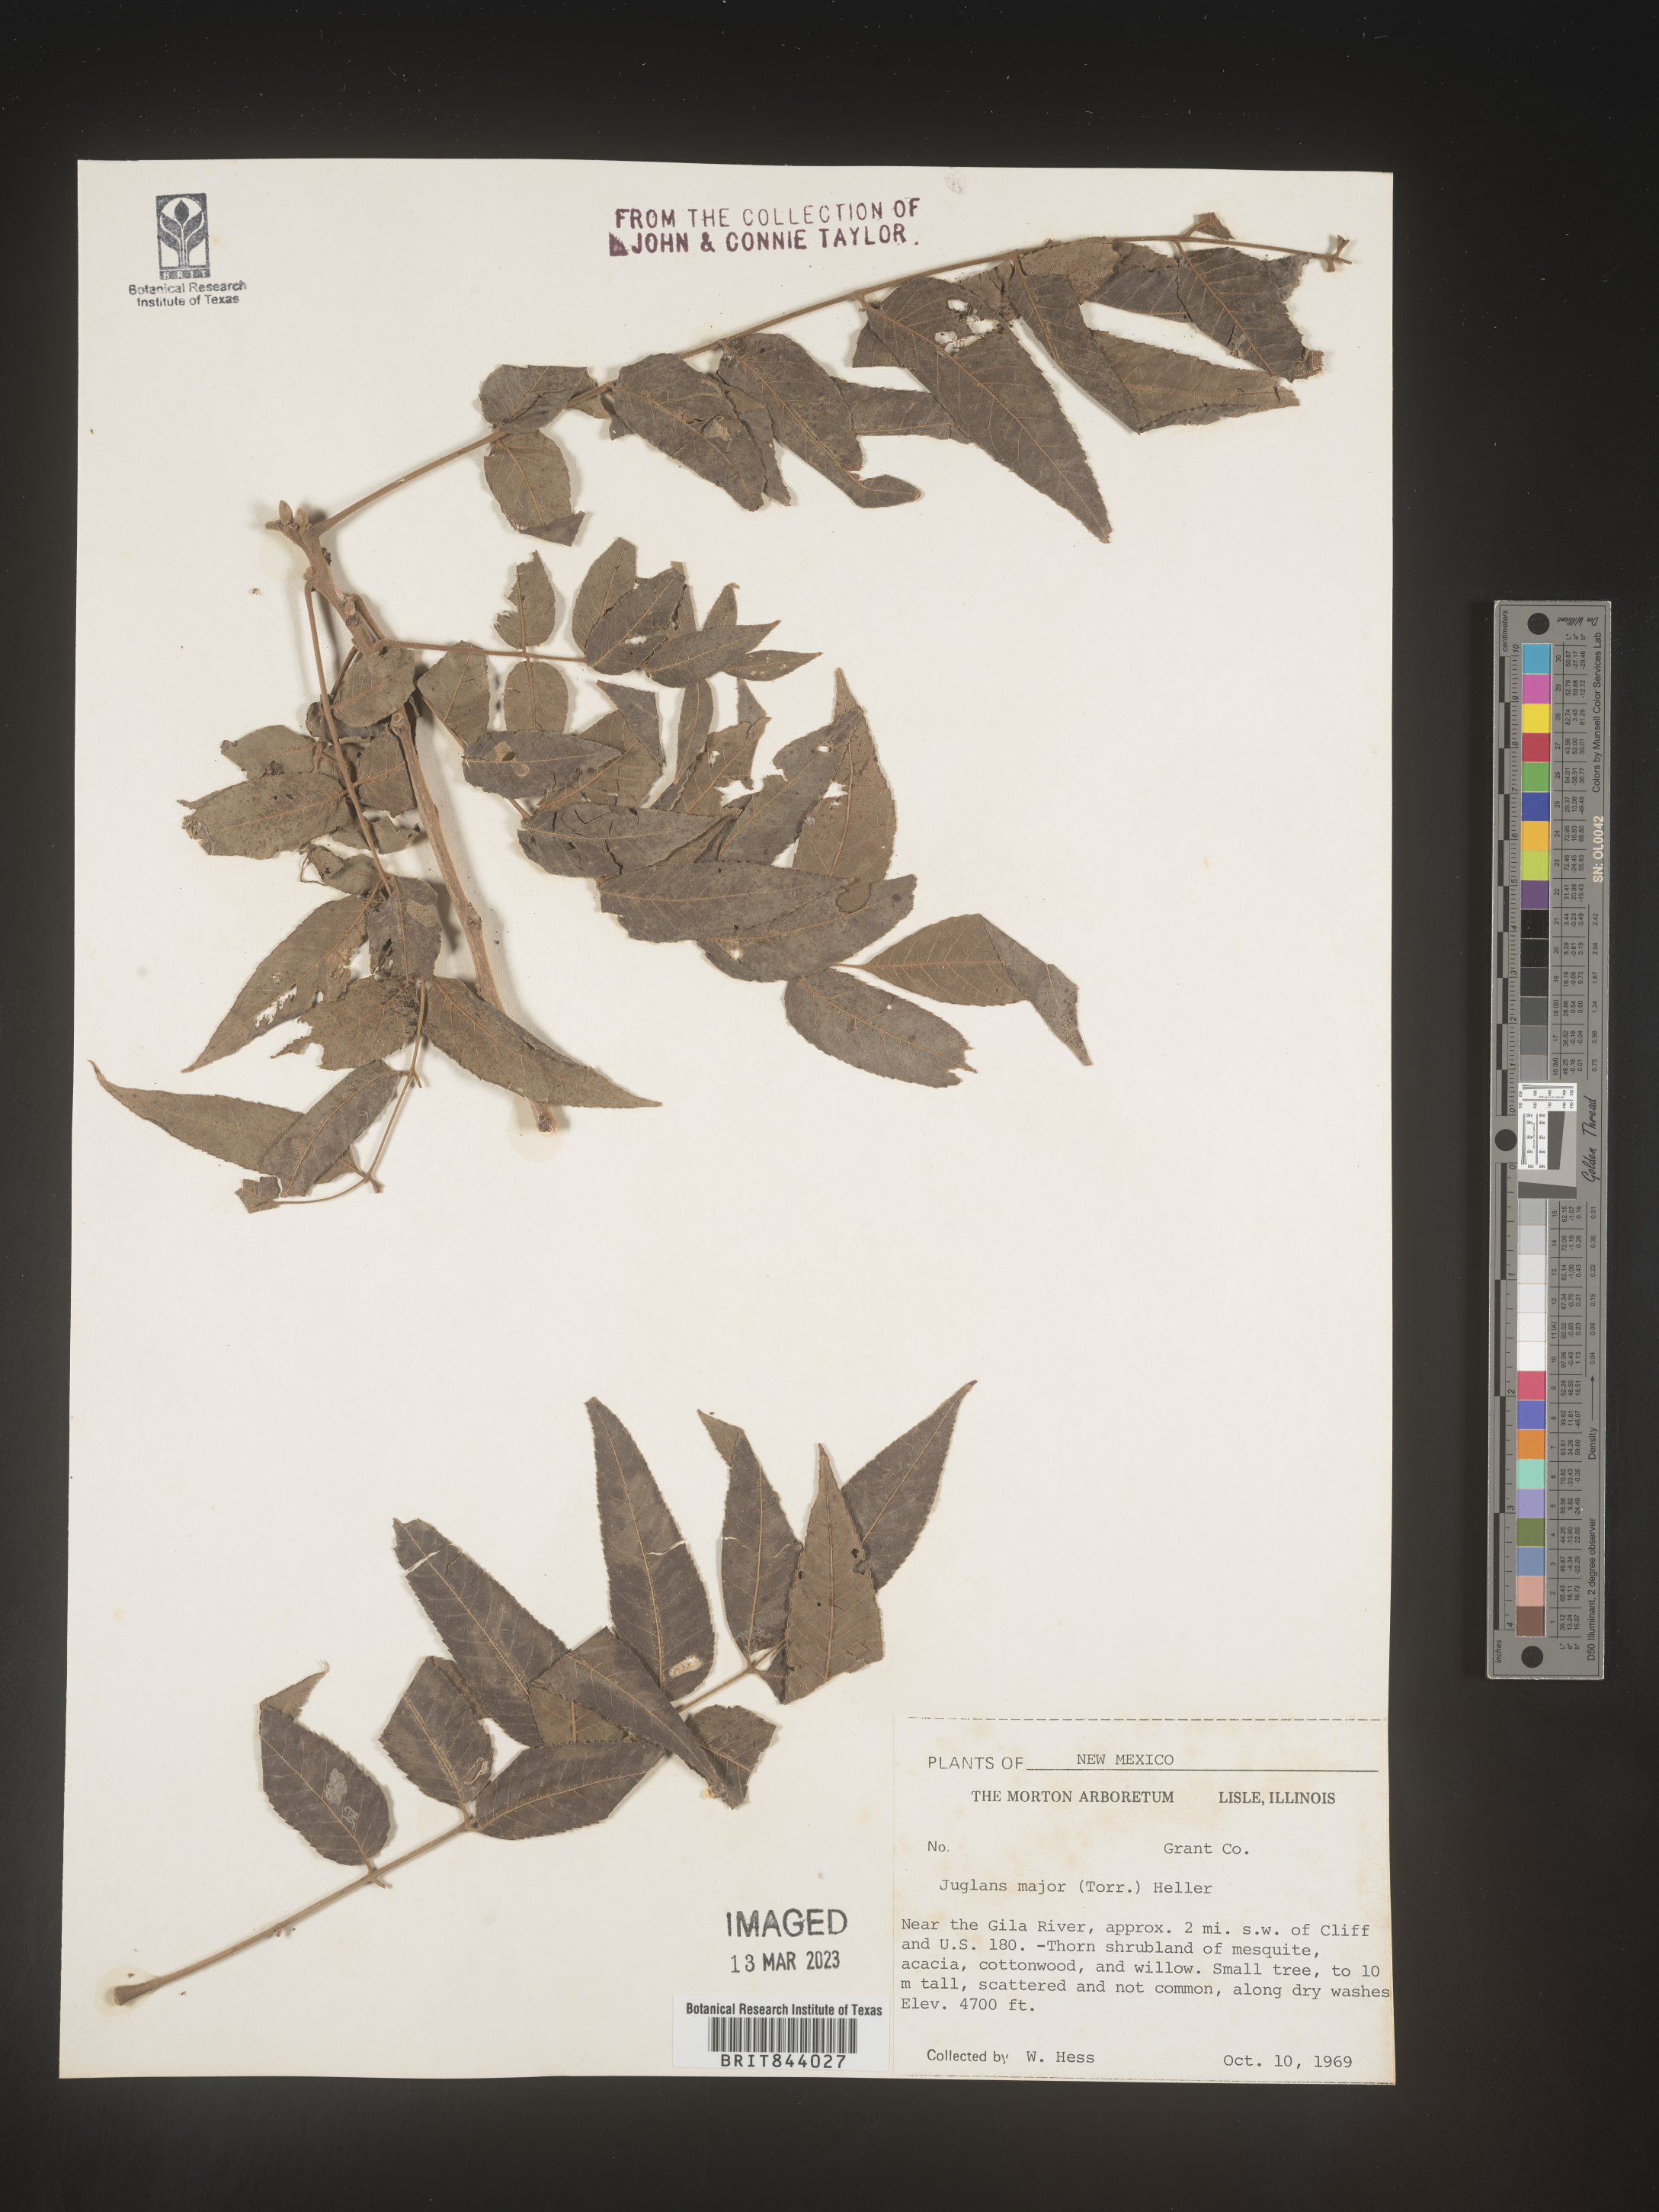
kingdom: Plantae
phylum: Tracheophyta
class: Magnoliopsida
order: Fagales
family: Juglandaceae
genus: Juglans
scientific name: Juglans major
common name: Arizona walnut
